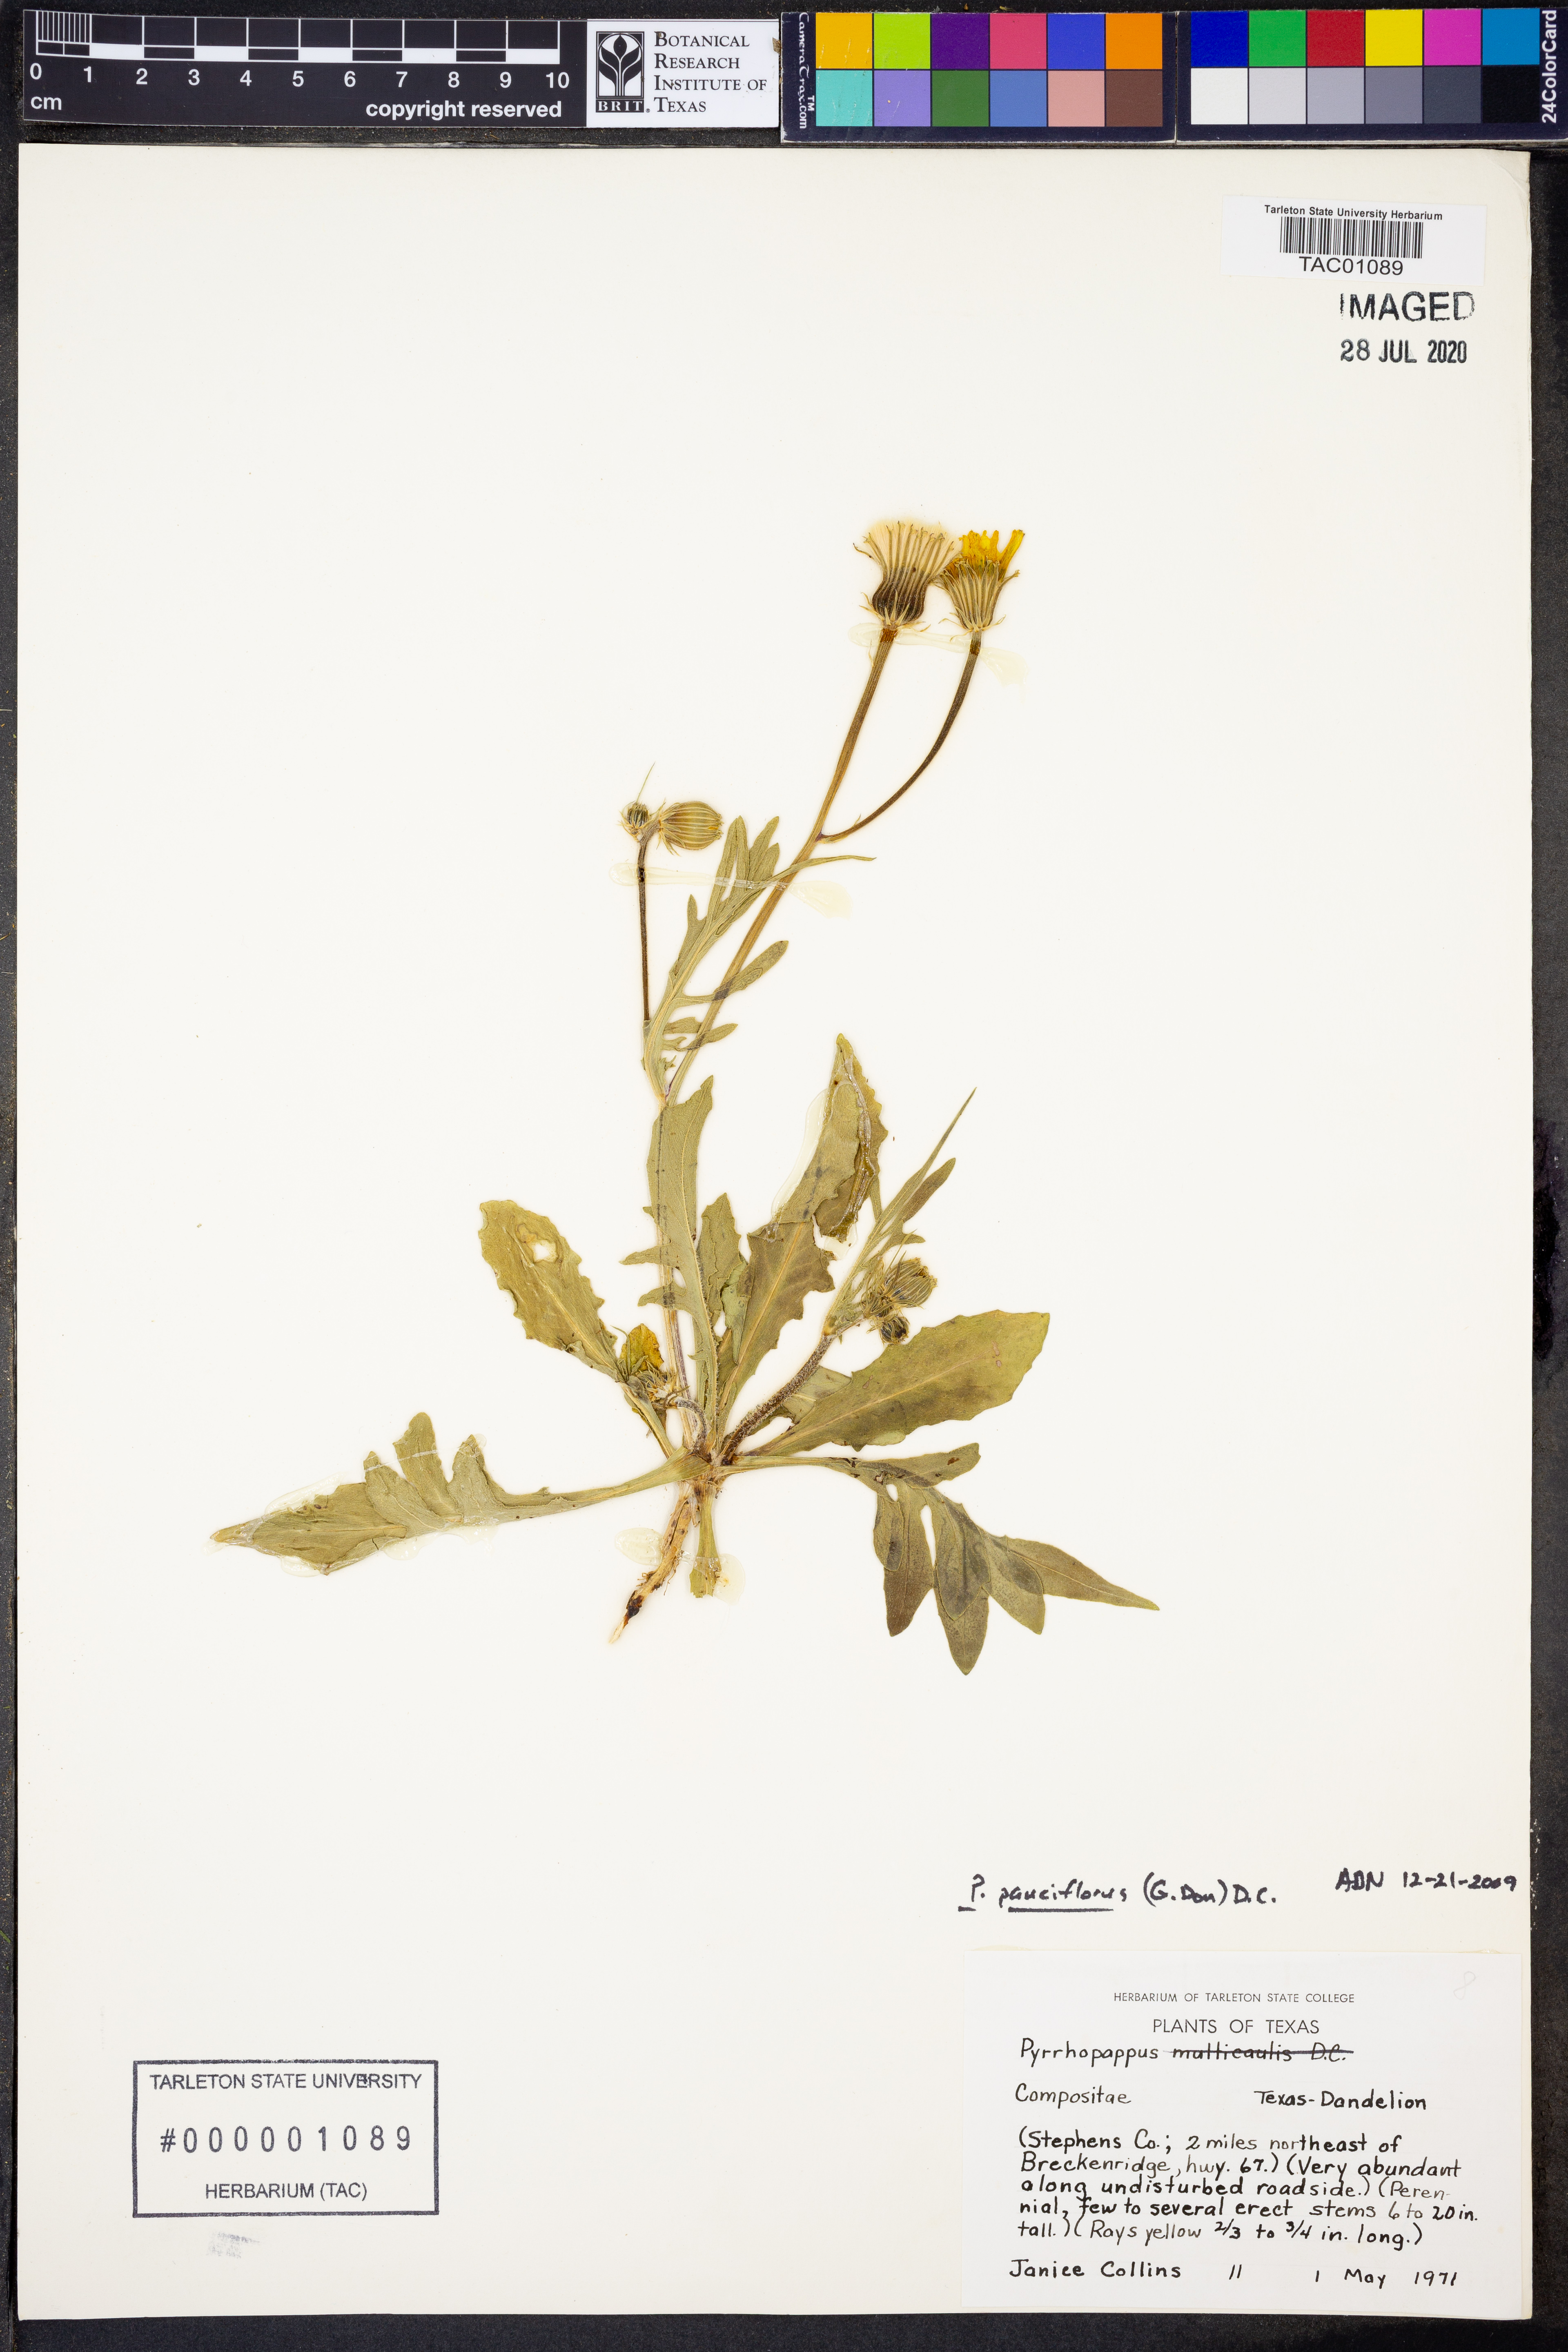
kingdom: Plantae
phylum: Tracheophyta
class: Magnoliopsida
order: Asterales
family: Asteraceae
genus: Pyrrhopappus
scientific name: Pyrrhopappus pauciflorus
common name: Texas false dandelion
